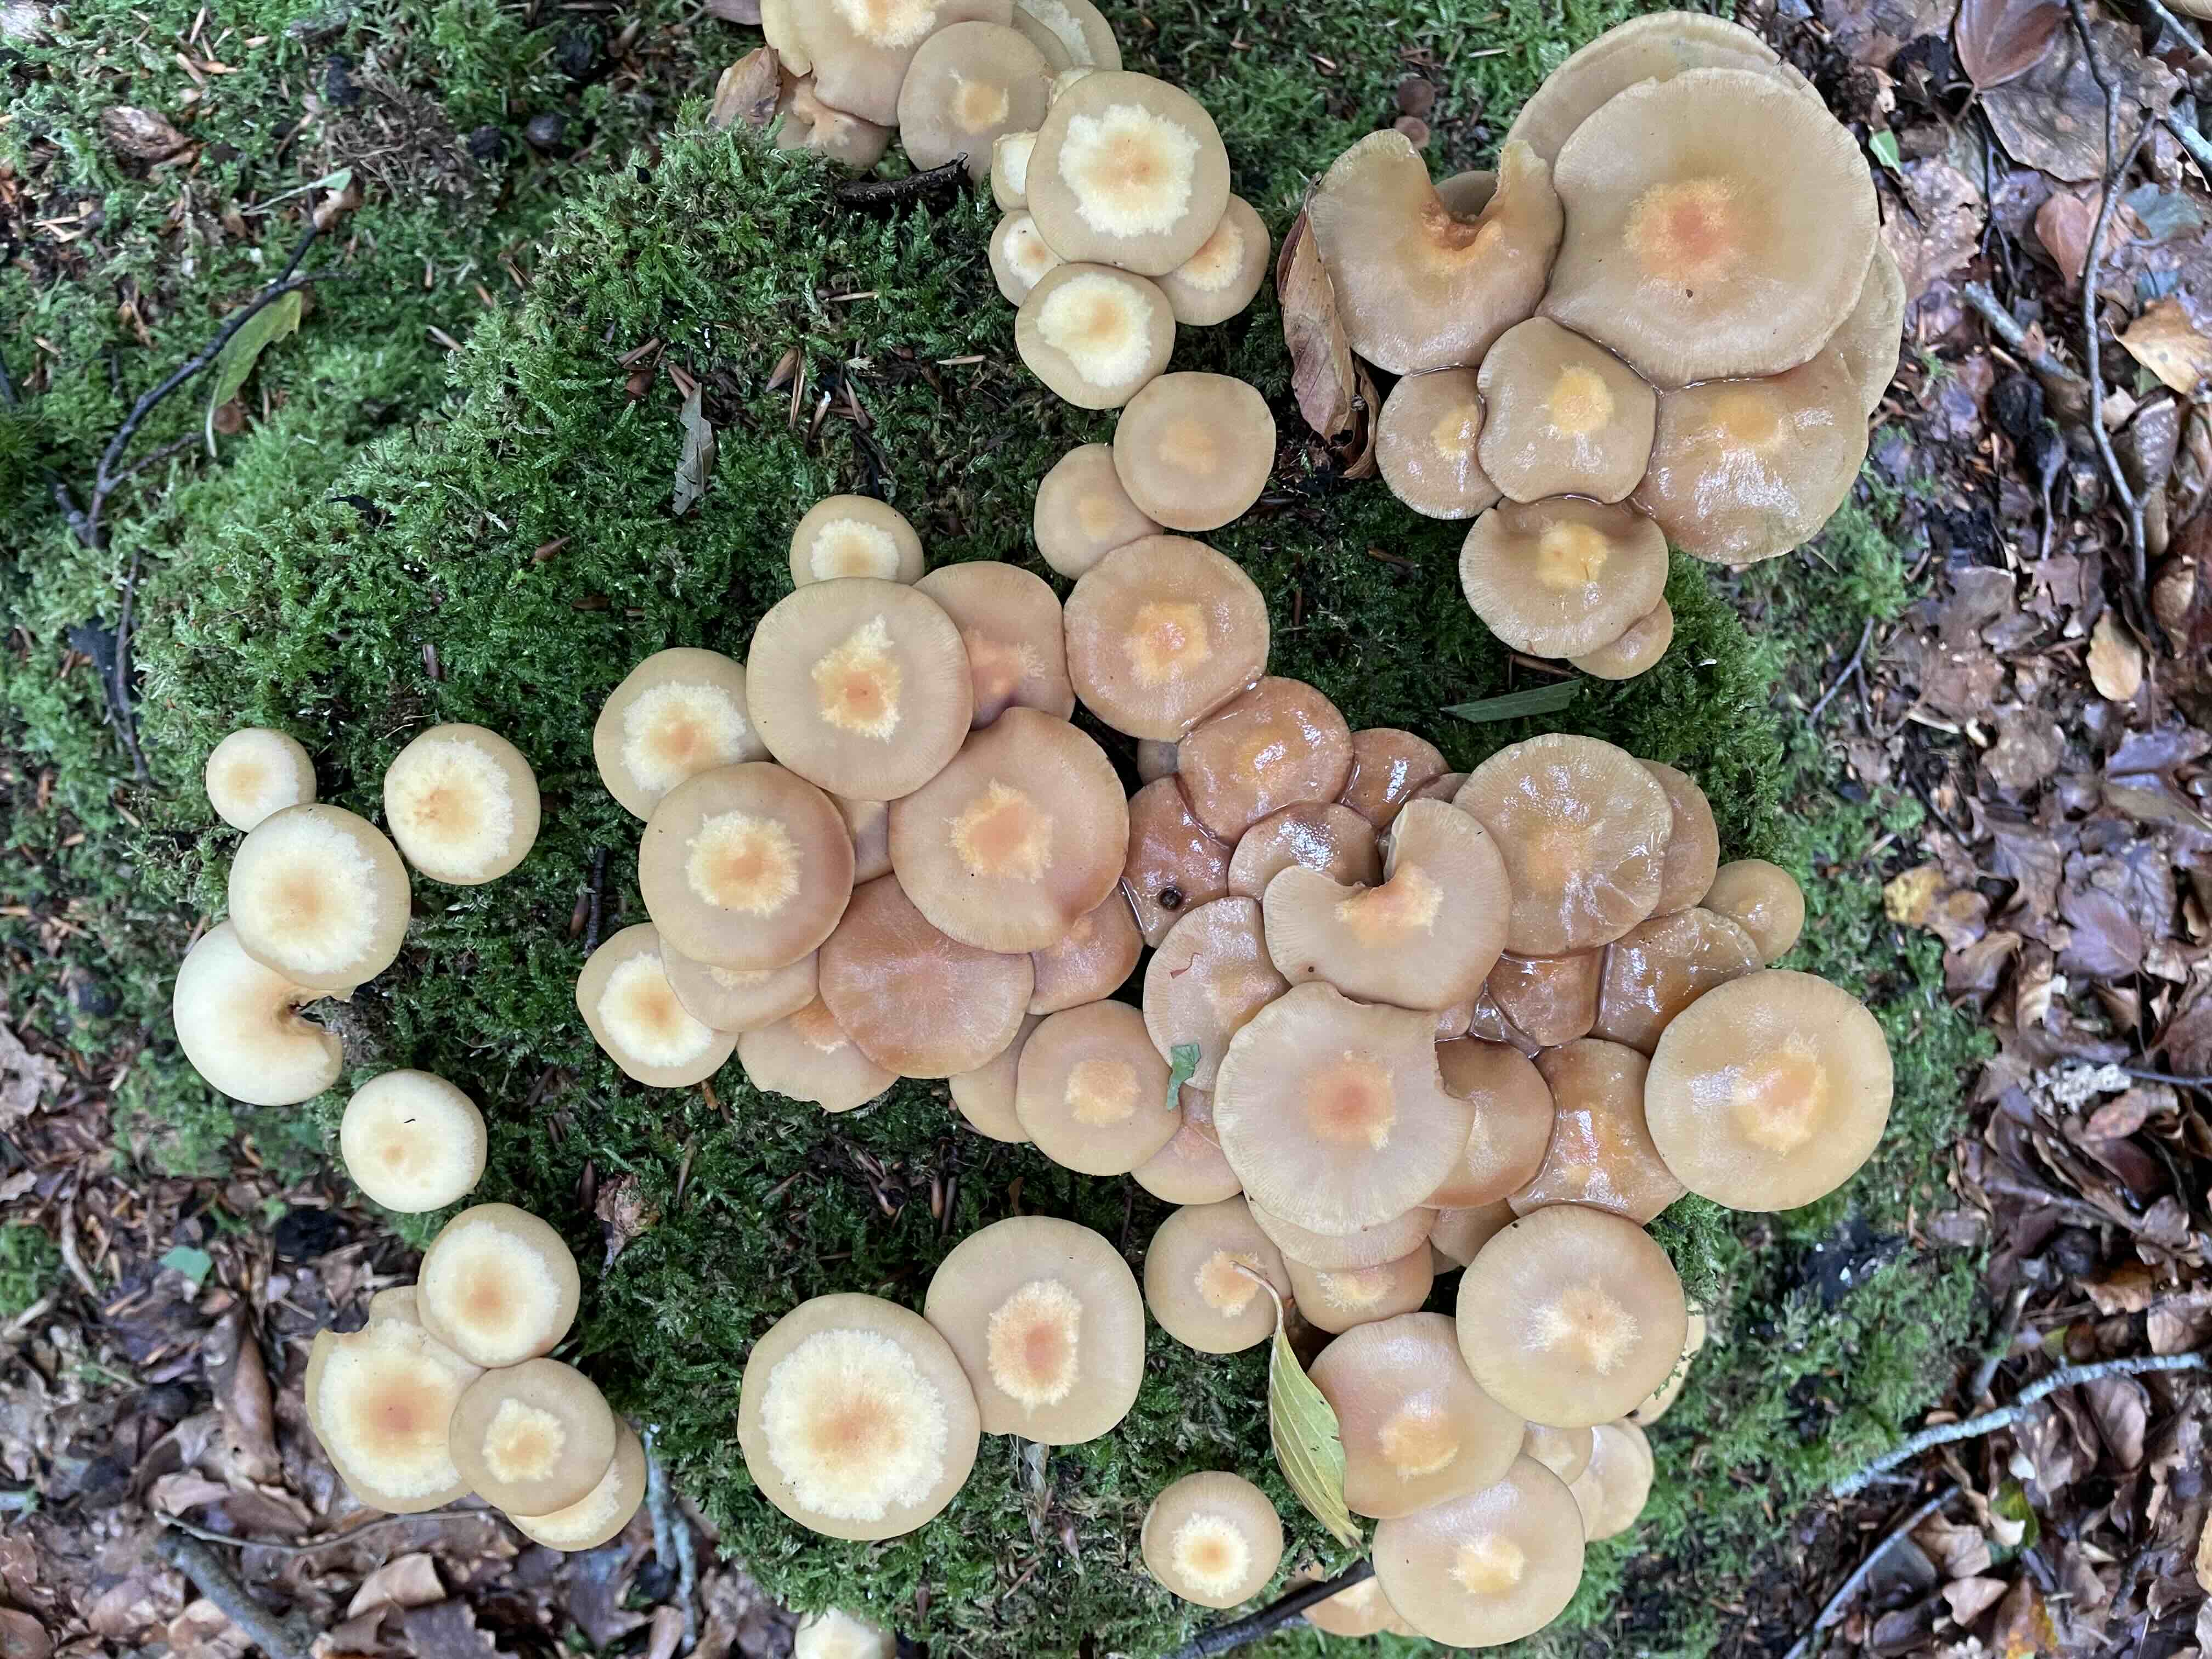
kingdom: Fungi
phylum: Basidiomycota
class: Agaricomycetes
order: Agaricales
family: Strophariaceae
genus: Kuehneromyces
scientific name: Kuehneromyces mutabilis
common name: foranderlig skælhat
